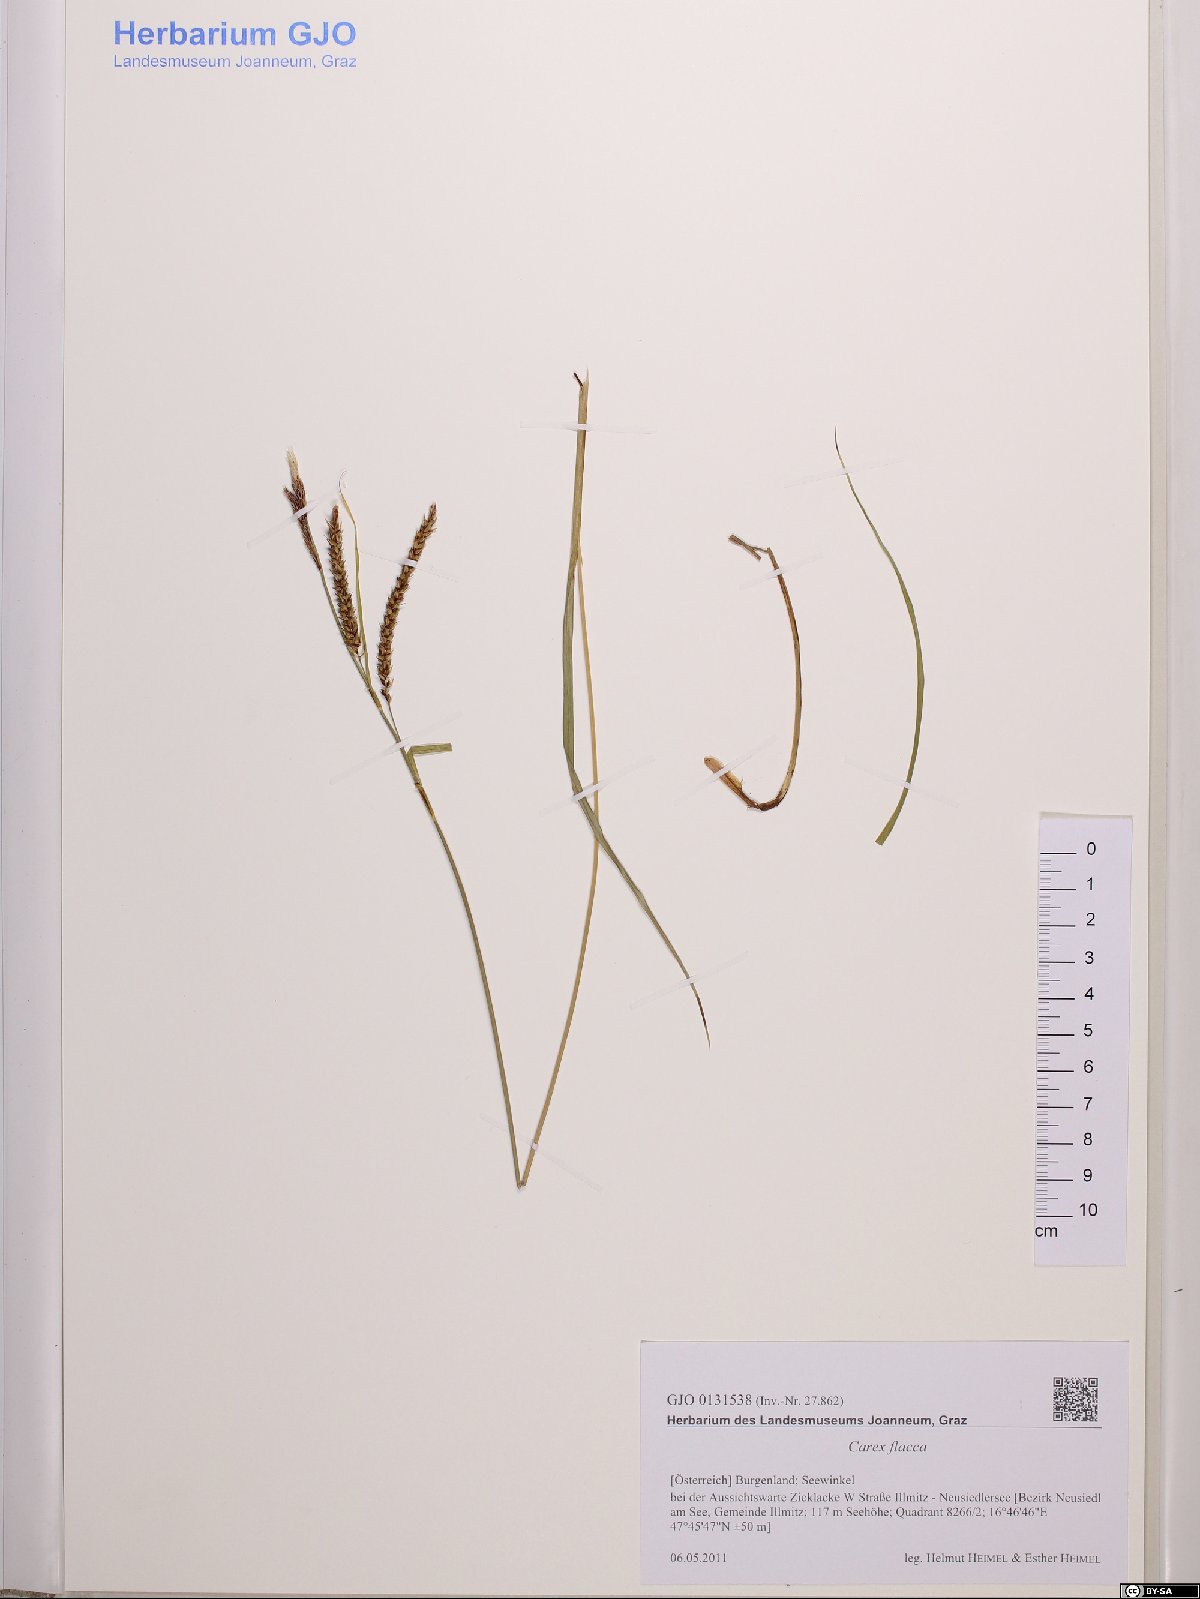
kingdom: Plantae
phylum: Tracheophyta
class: Liliopsida
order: Poales
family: Cyperaceae
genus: Carex
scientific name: Carex flacca
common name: Glaucous sedge
